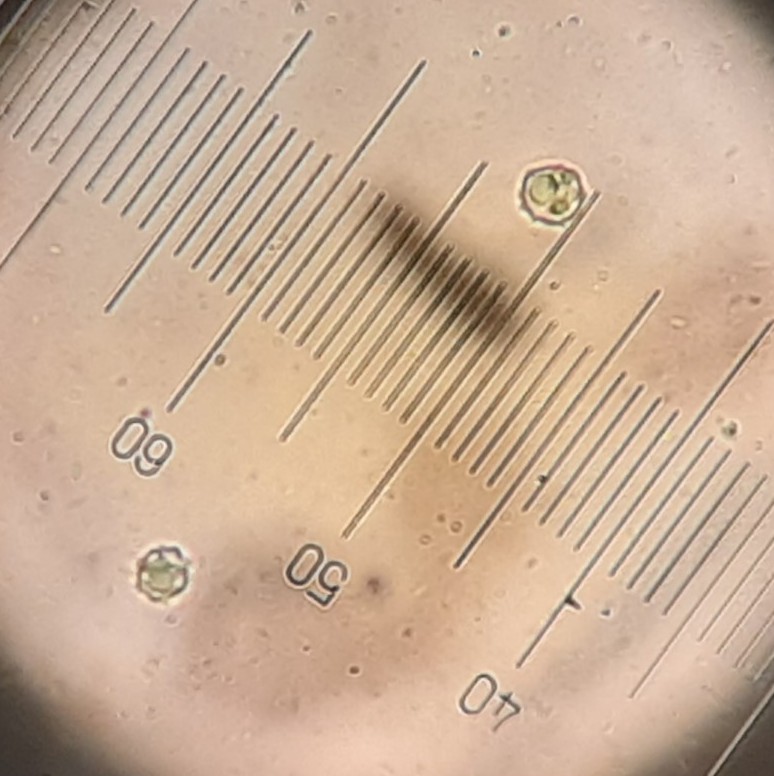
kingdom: Fungi
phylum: Basidiomycota
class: Agaricomycetes
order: Agaricales
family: Clavariaceae
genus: Clavulinopsis
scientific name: Clavulinopsis helvola
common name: orangegul køllesvamp
